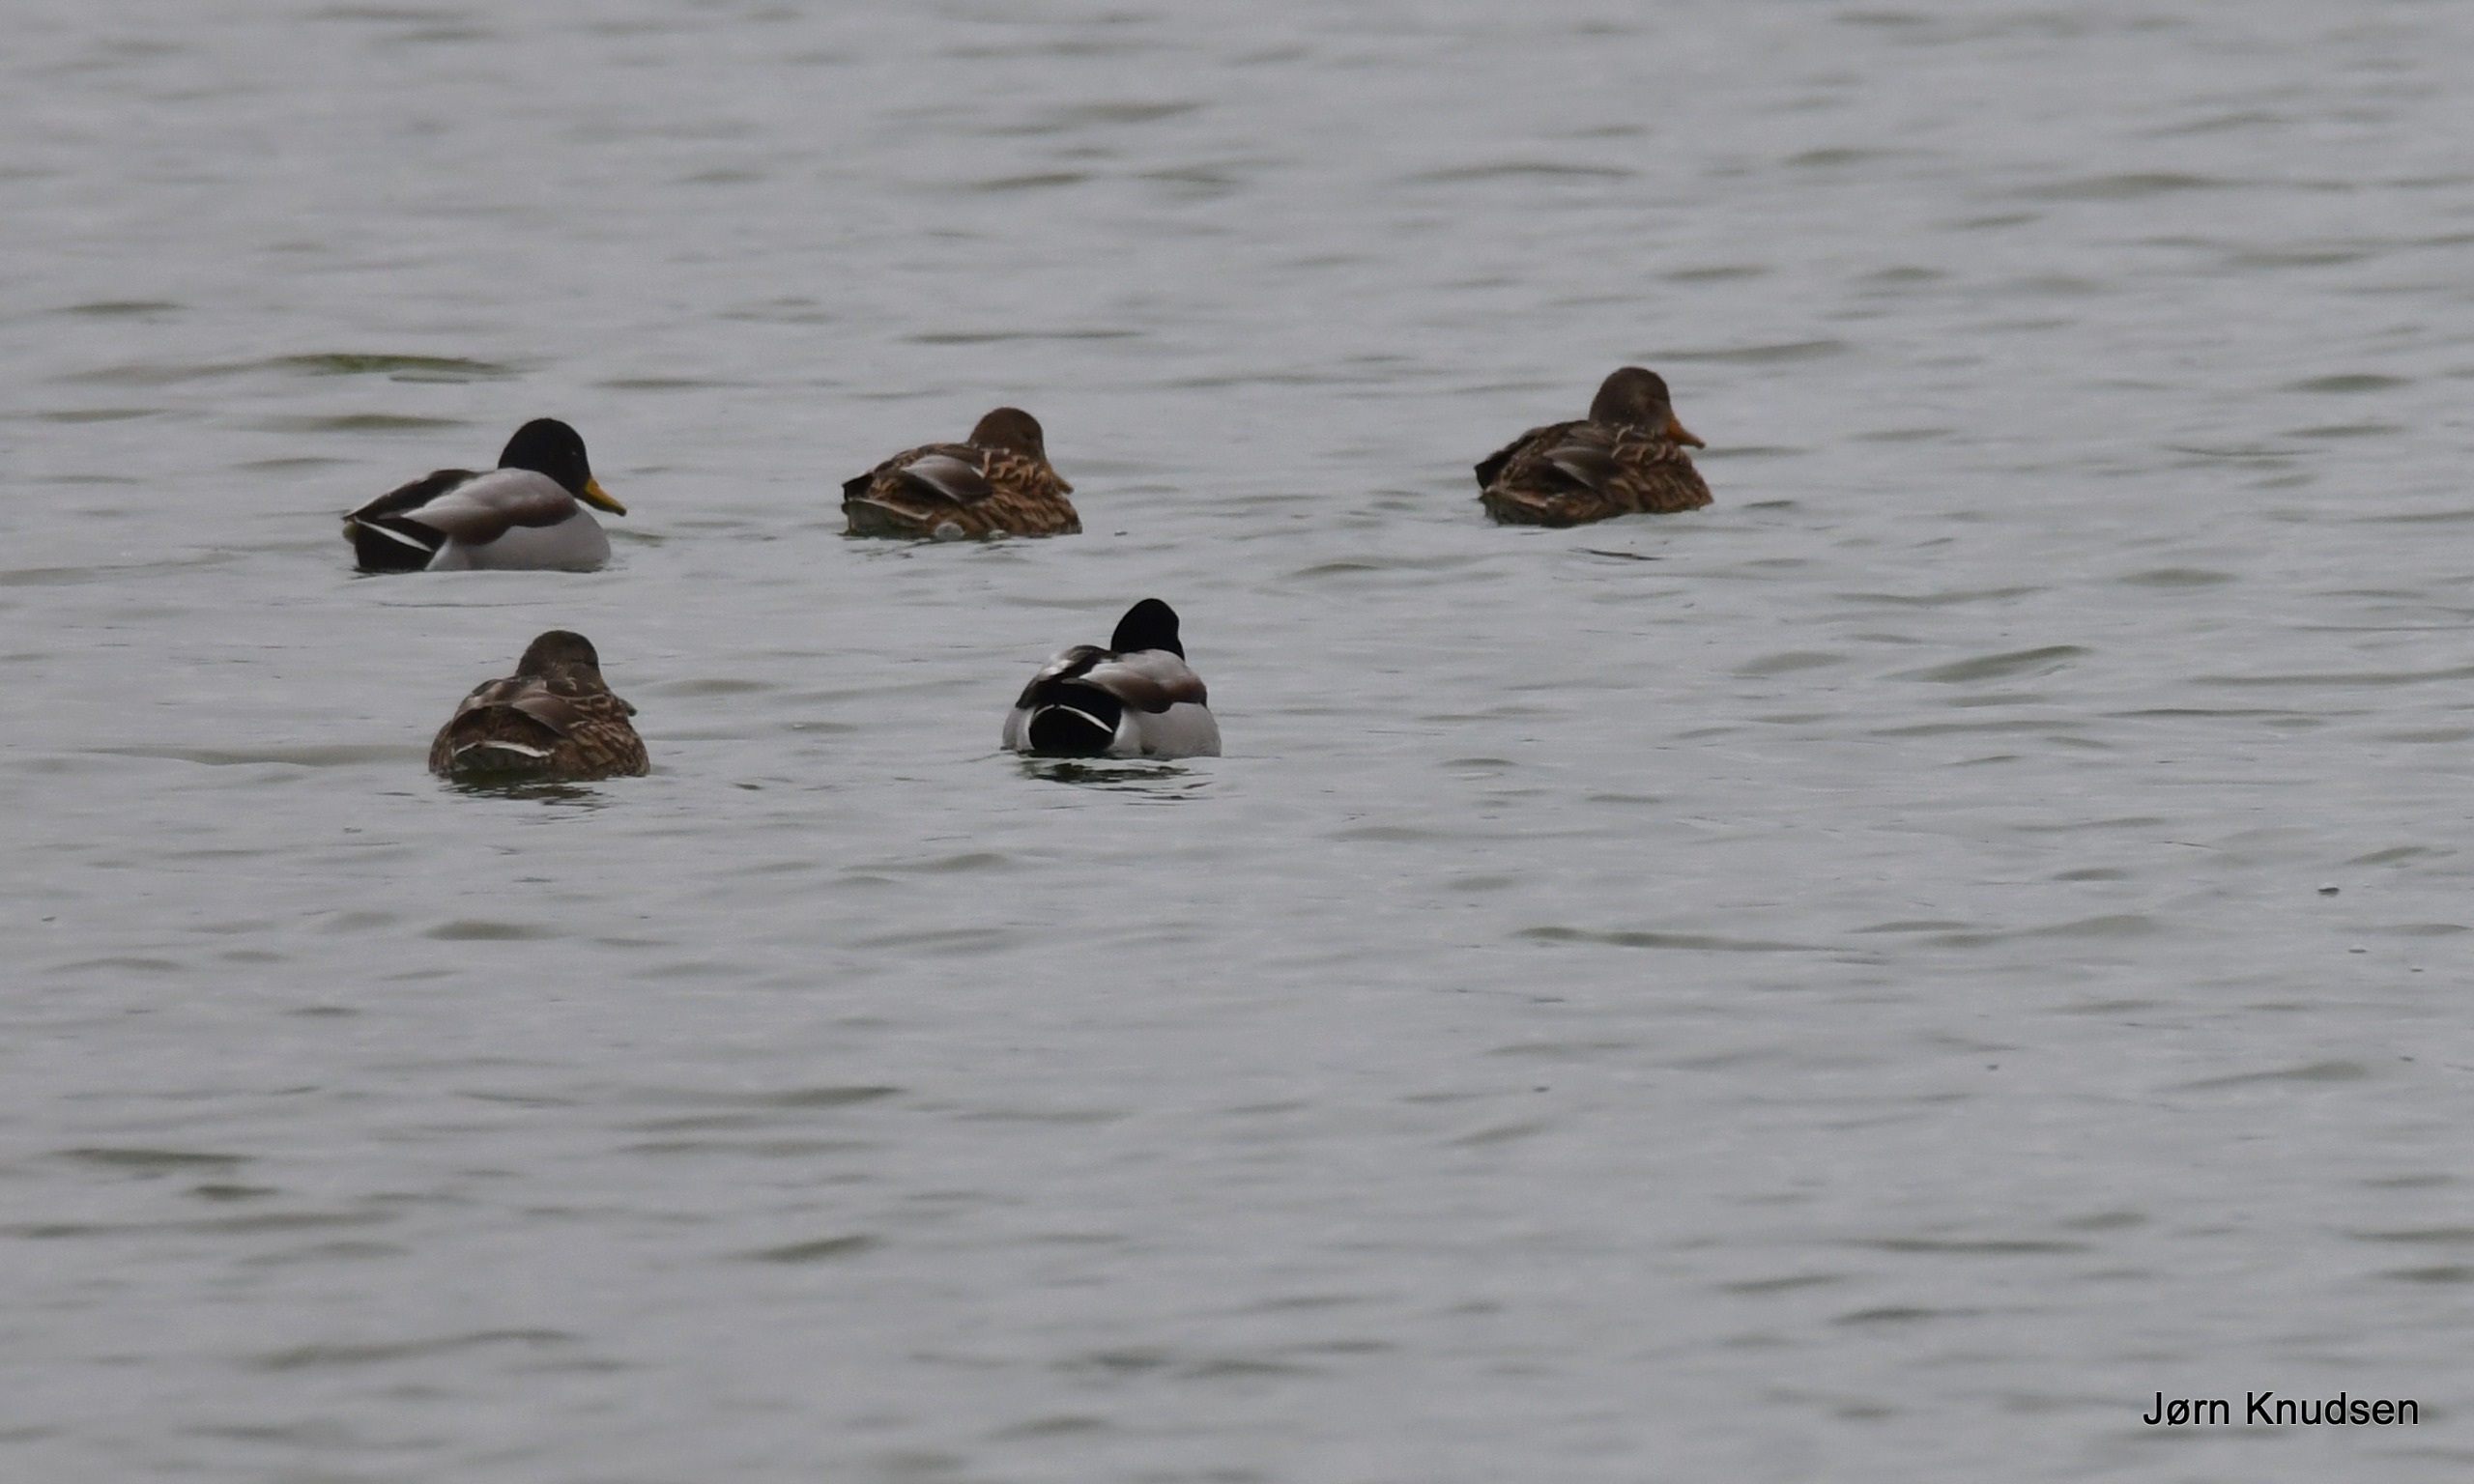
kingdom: Animalia
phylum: Chordata
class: Aves
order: Anseriformes
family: Anatidae
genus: Anas
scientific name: Anas platyrhynchos
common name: Gråand
